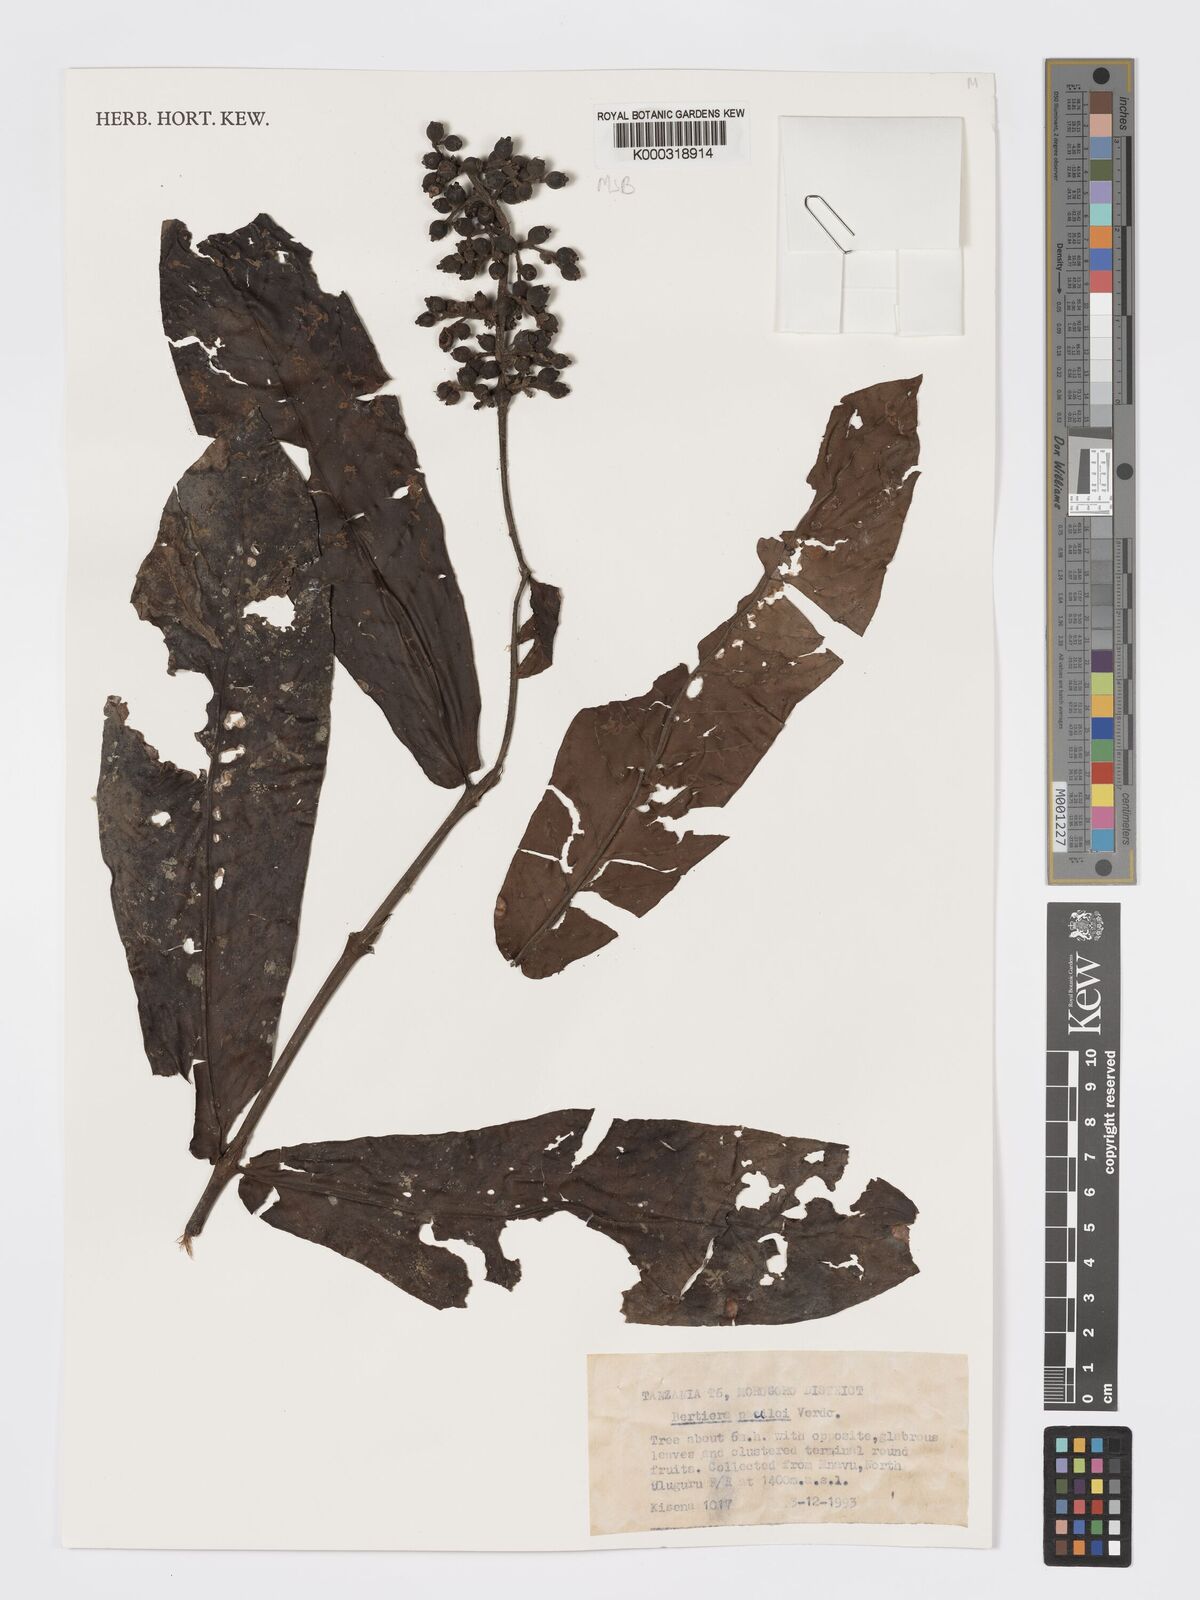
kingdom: Plantae
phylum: Tracheophyta
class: Magnoliopsida
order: Gentianales
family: Rubiaceae
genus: Bertiera
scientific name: Bertiera pauloi
